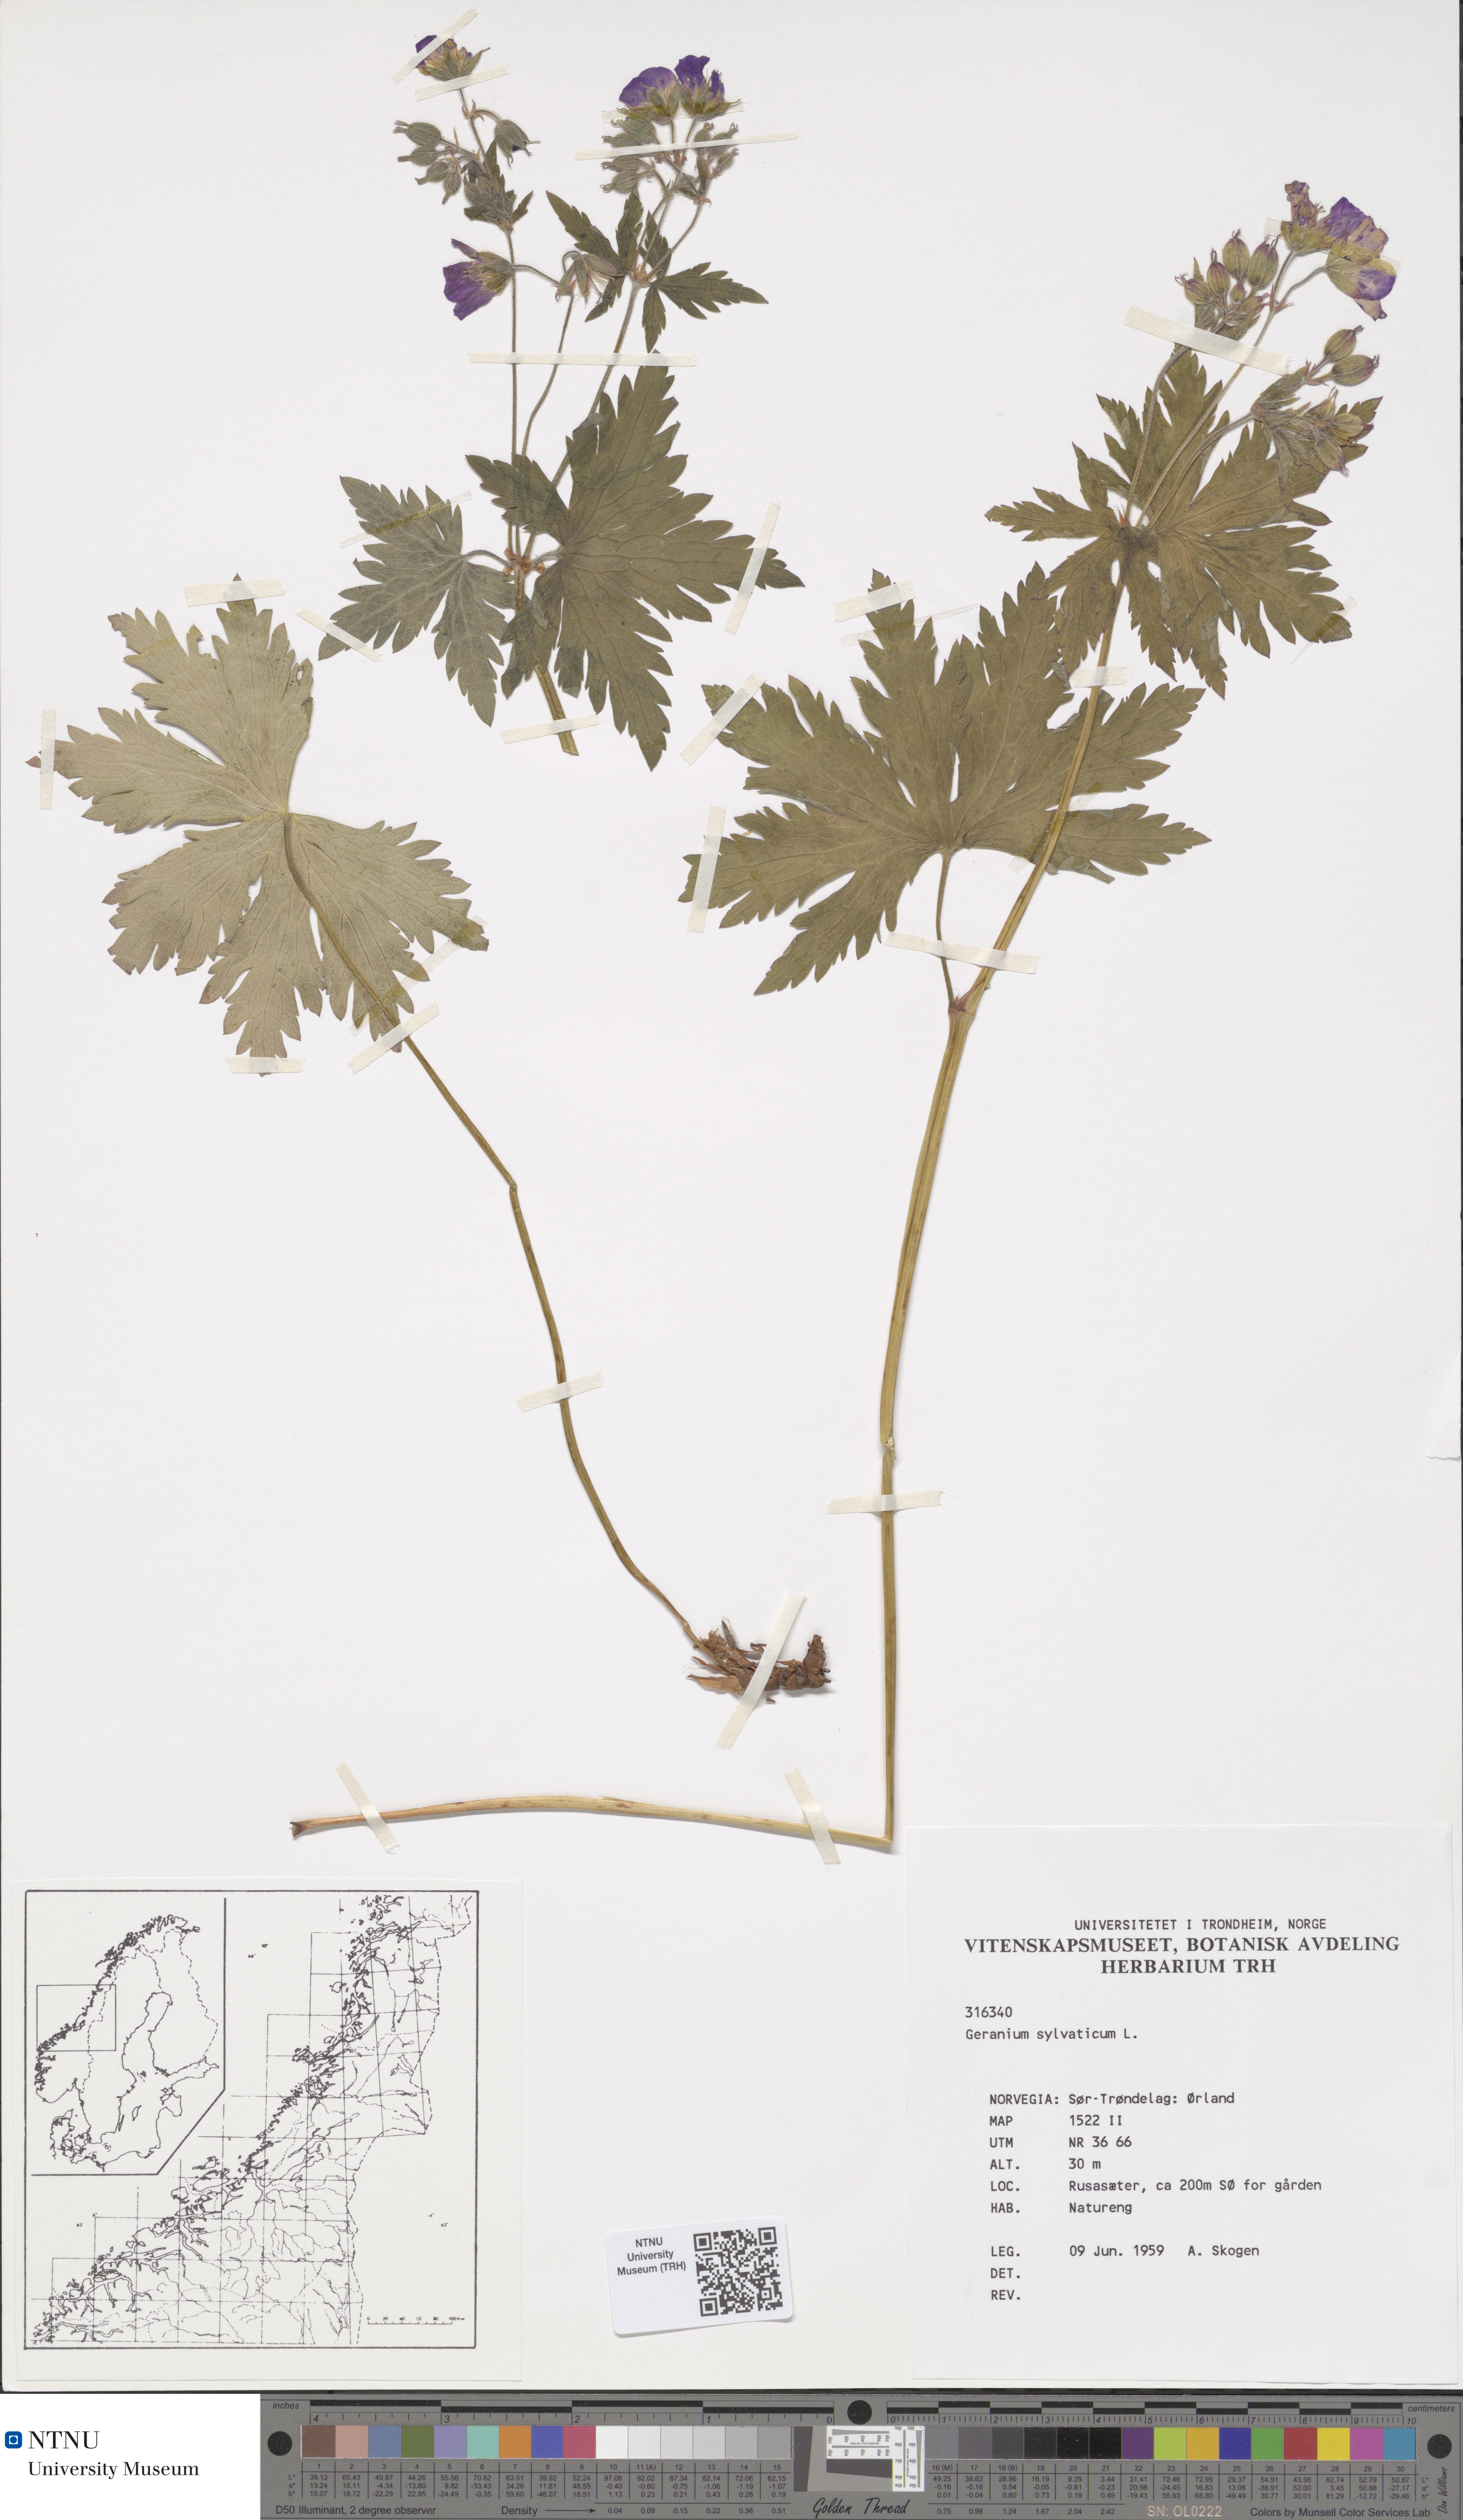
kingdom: Plantae
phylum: Tracheophyta
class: Magnoliopsida
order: Geraniales
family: Geraniaceae
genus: Geranium
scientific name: Geranium sylvaticum
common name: Wood crane's-bill
